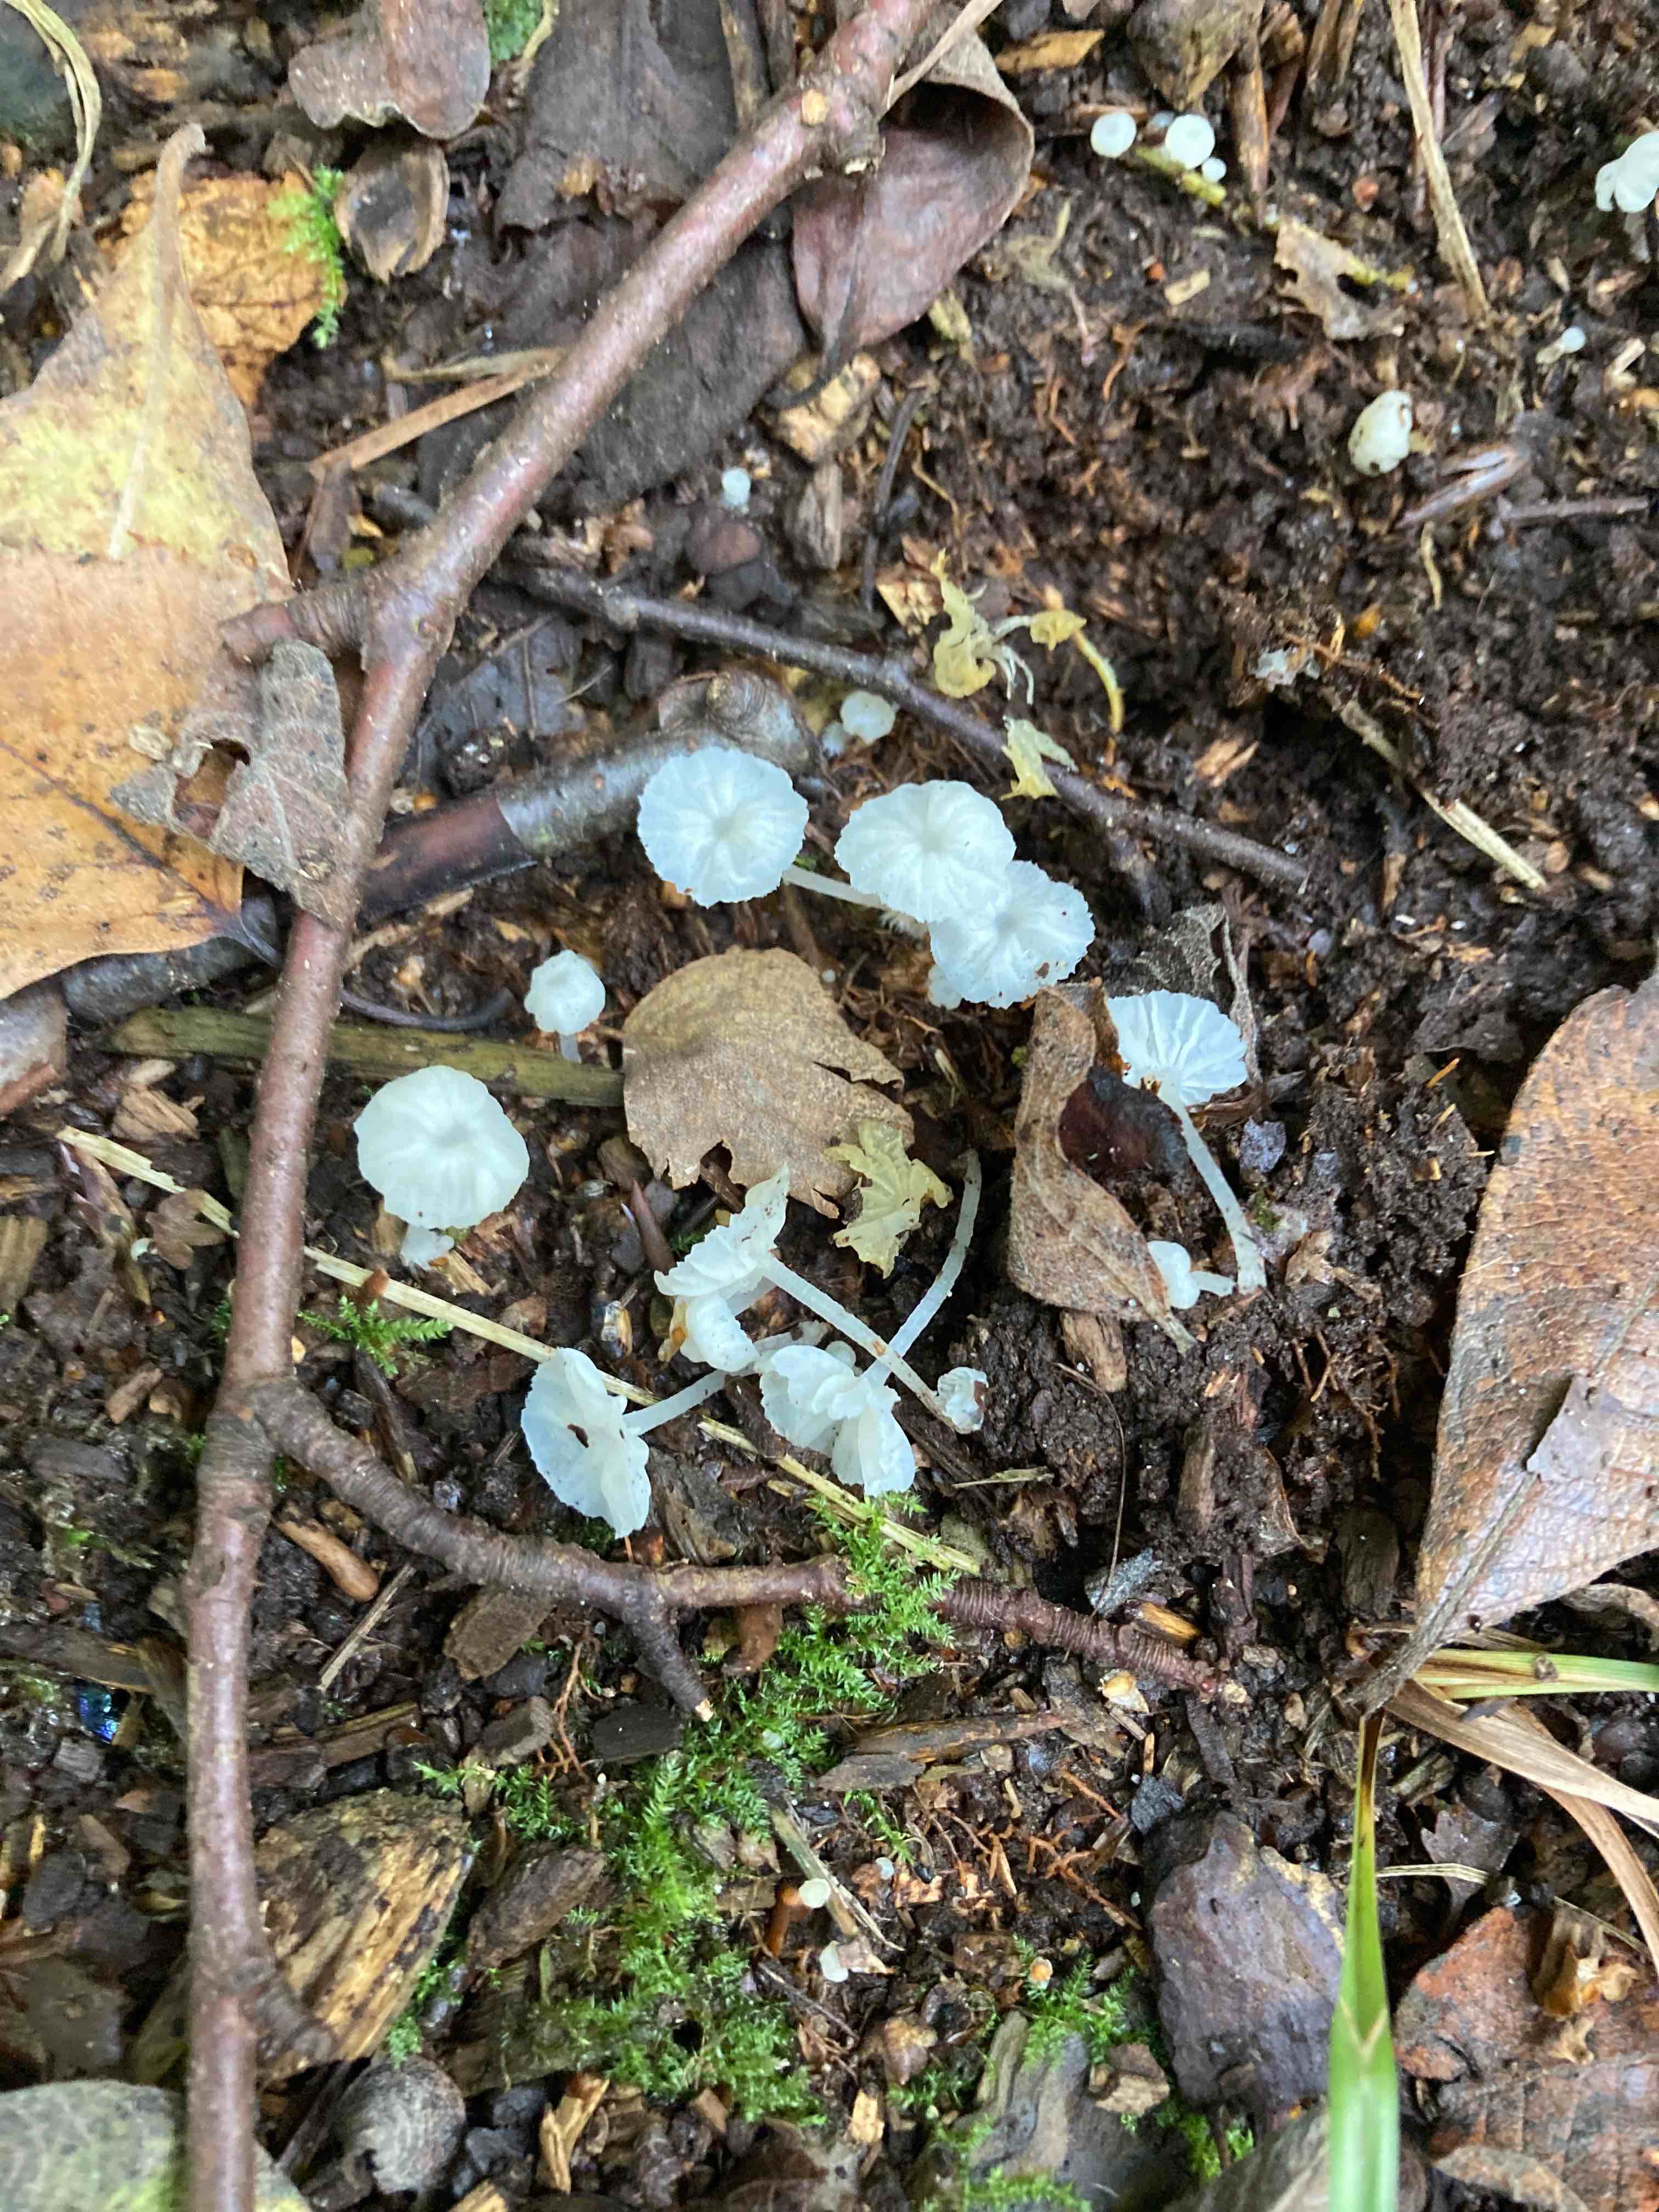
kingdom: Fungi
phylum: Basidiomycota
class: Agaricomycetes
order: Agaricales
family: Tricholomataceae
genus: Delicatula
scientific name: Delicatula integrella
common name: slørhuesvamp
